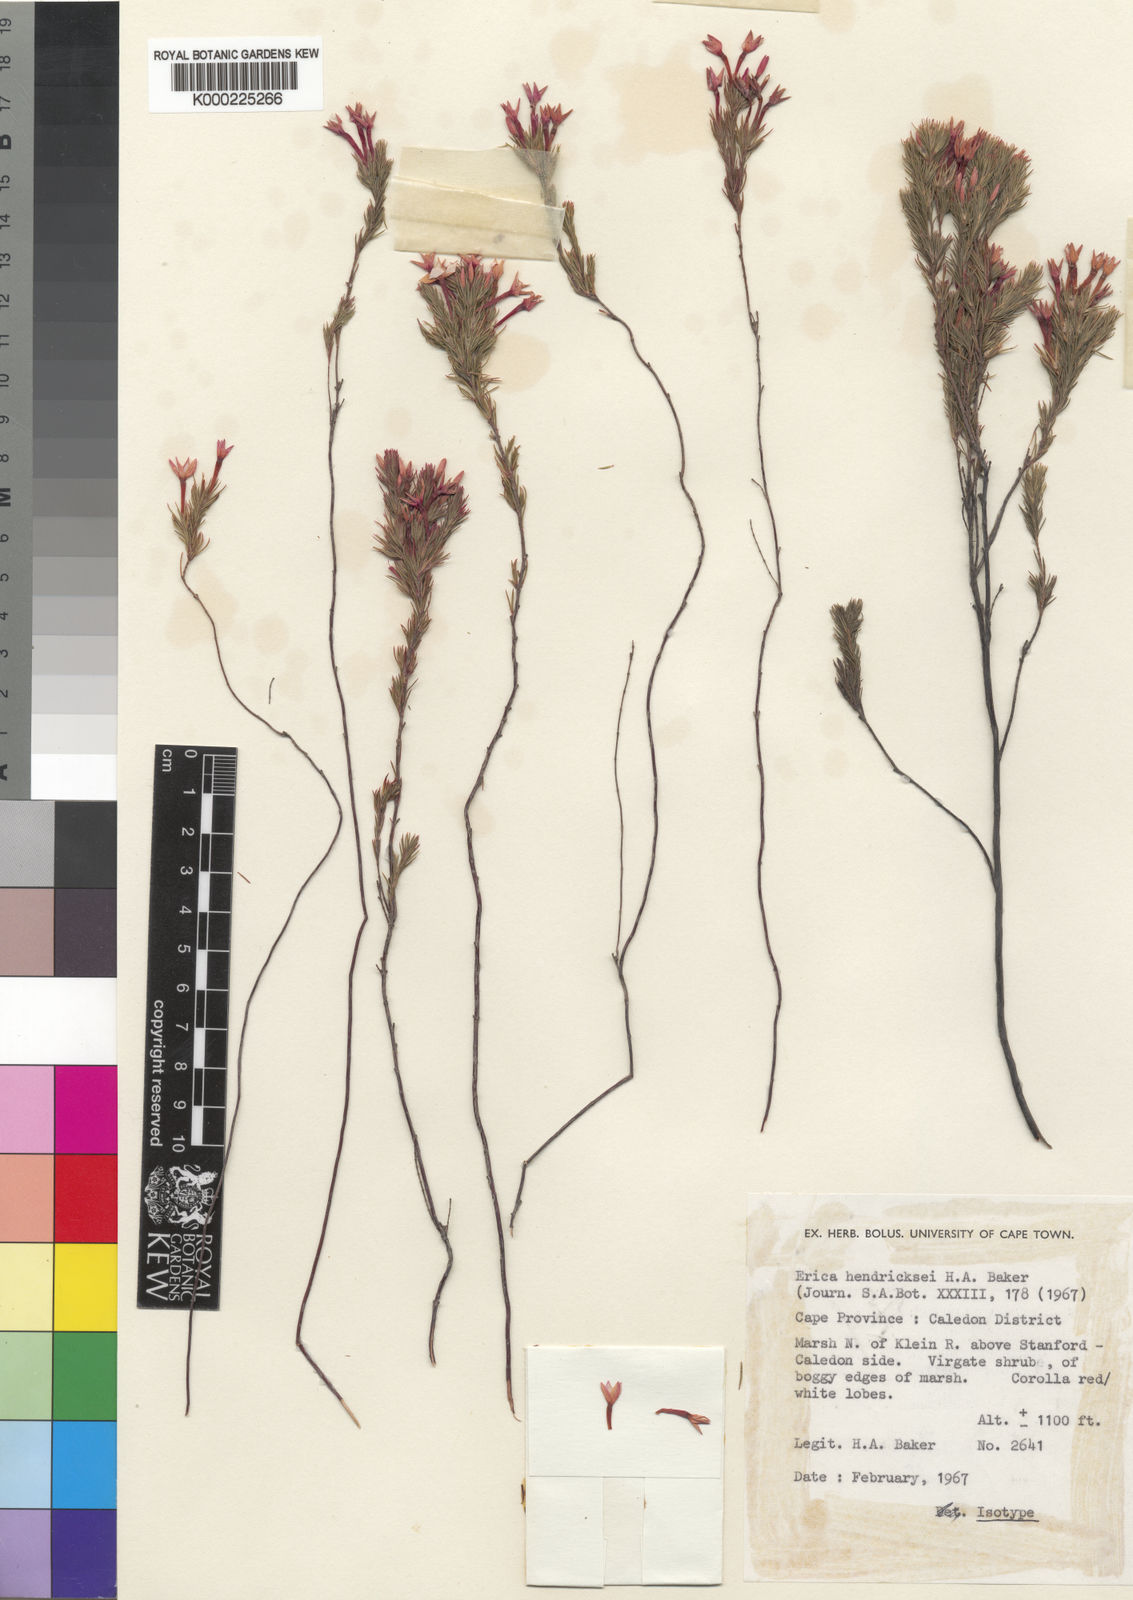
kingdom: Plantae
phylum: Tracheophyta
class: Magnoliopsida
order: Ericales
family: Ericaceae
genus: Erica
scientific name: Erica hendricksei
